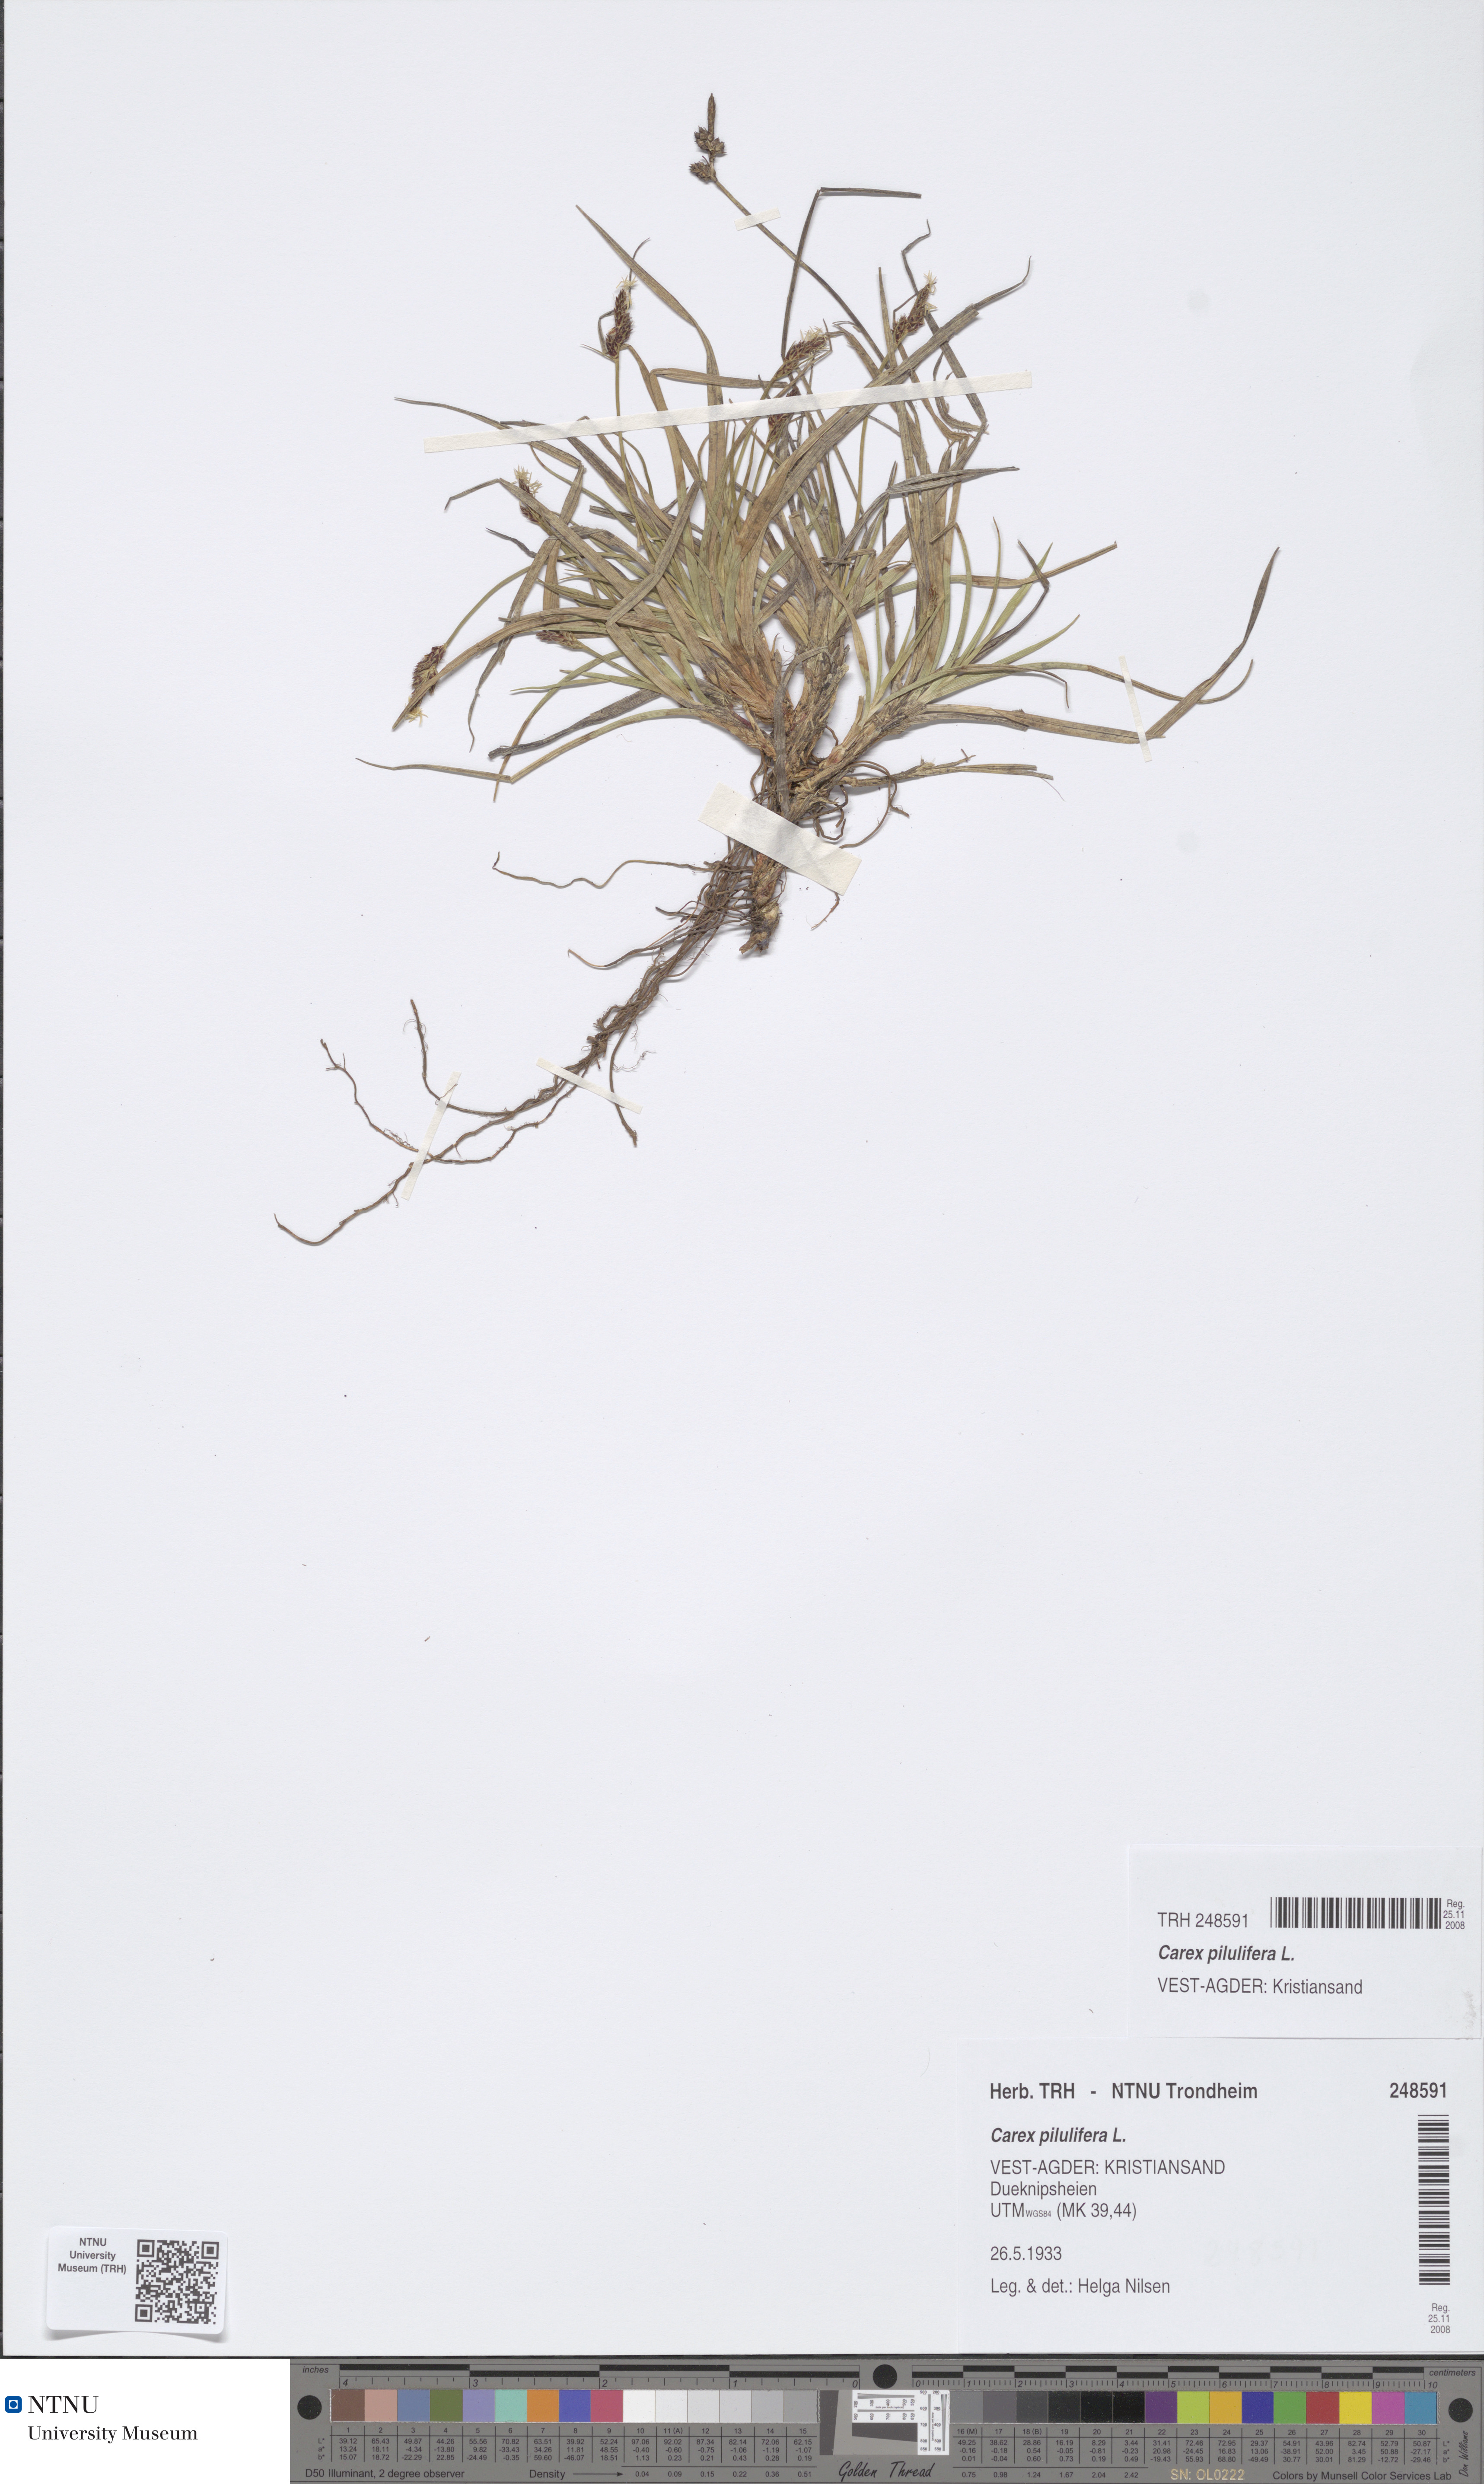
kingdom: Plantae
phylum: Tracheophyta
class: Liliopsida
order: Poales
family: Cyperaceae
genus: Carex
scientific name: Carex pilulifera
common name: Pill sedge
